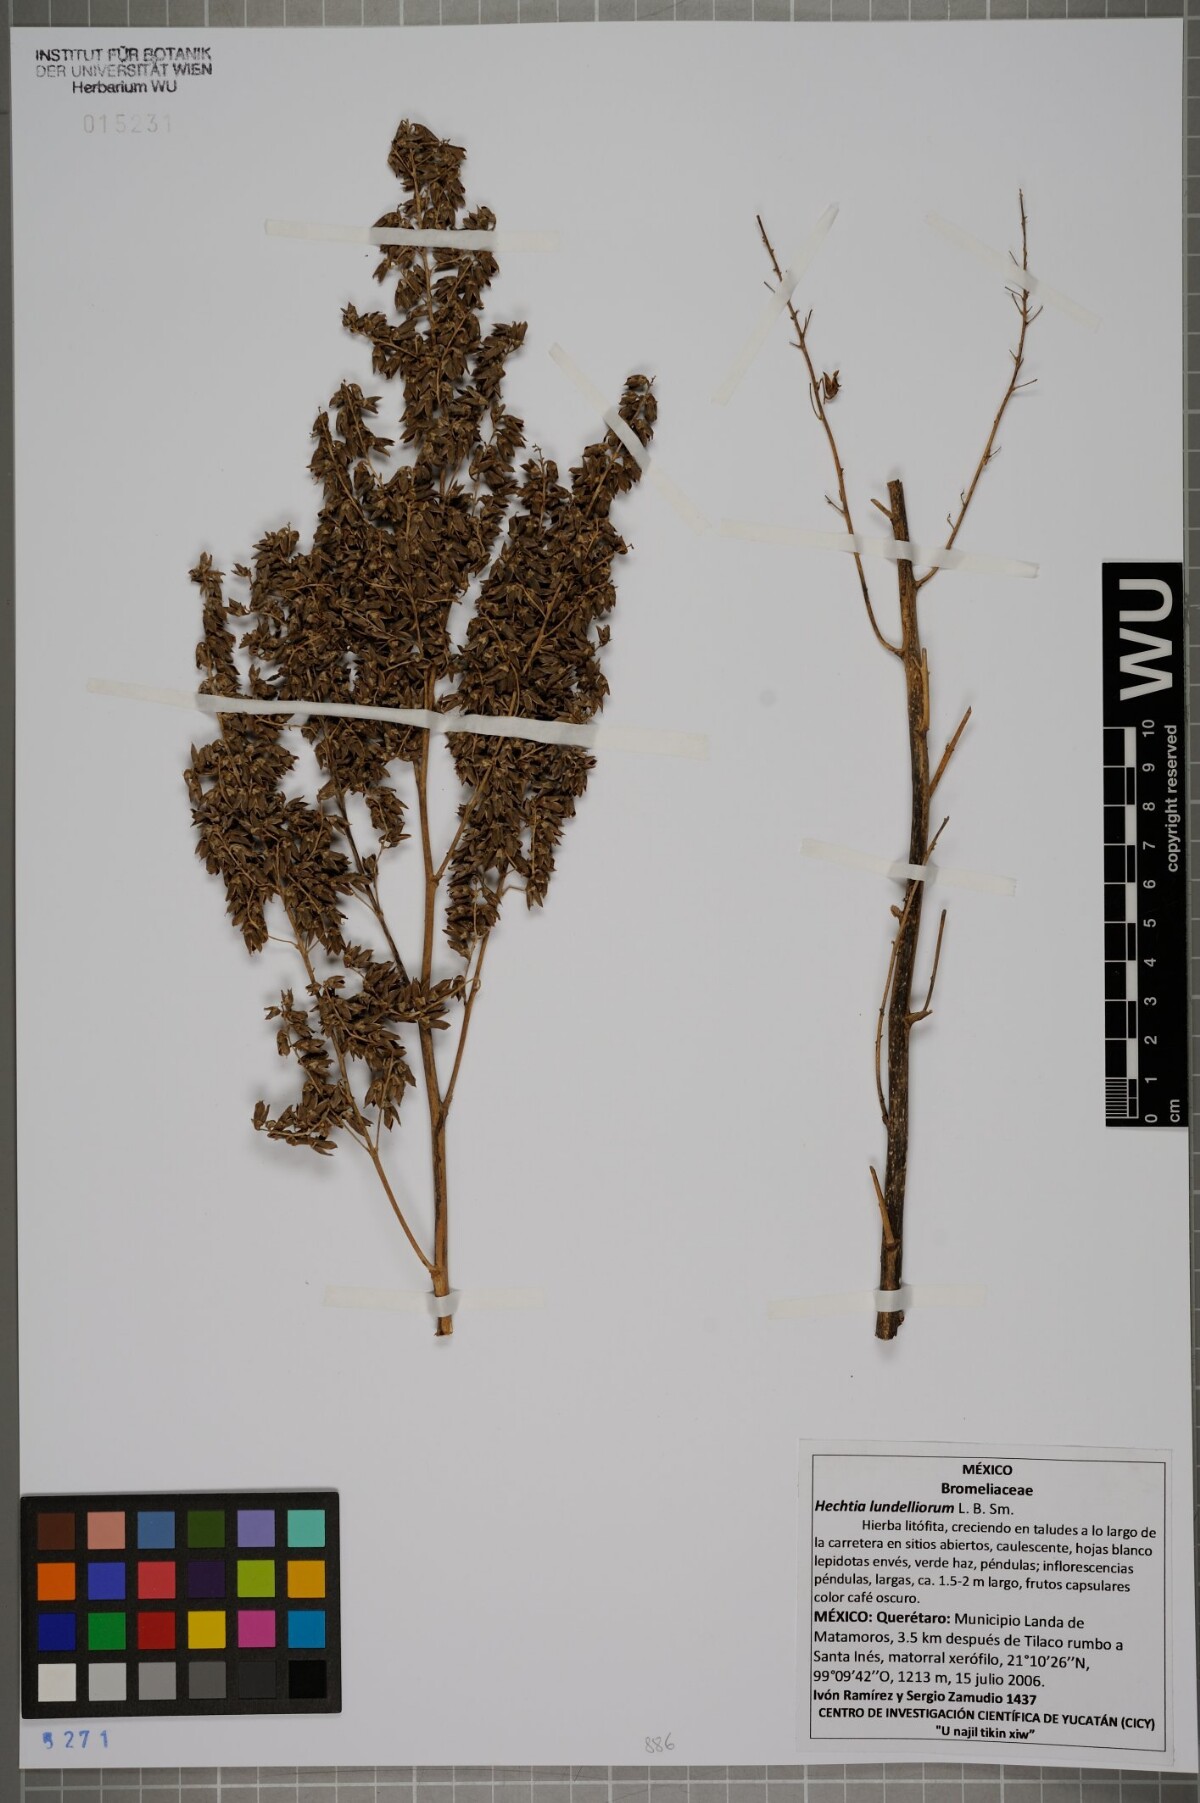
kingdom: Plantae
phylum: Tracheophyta
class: Liliopsida
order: Poales
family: Bromeliaceae
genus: Hechtia
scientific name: Hechtia lundelliorum
